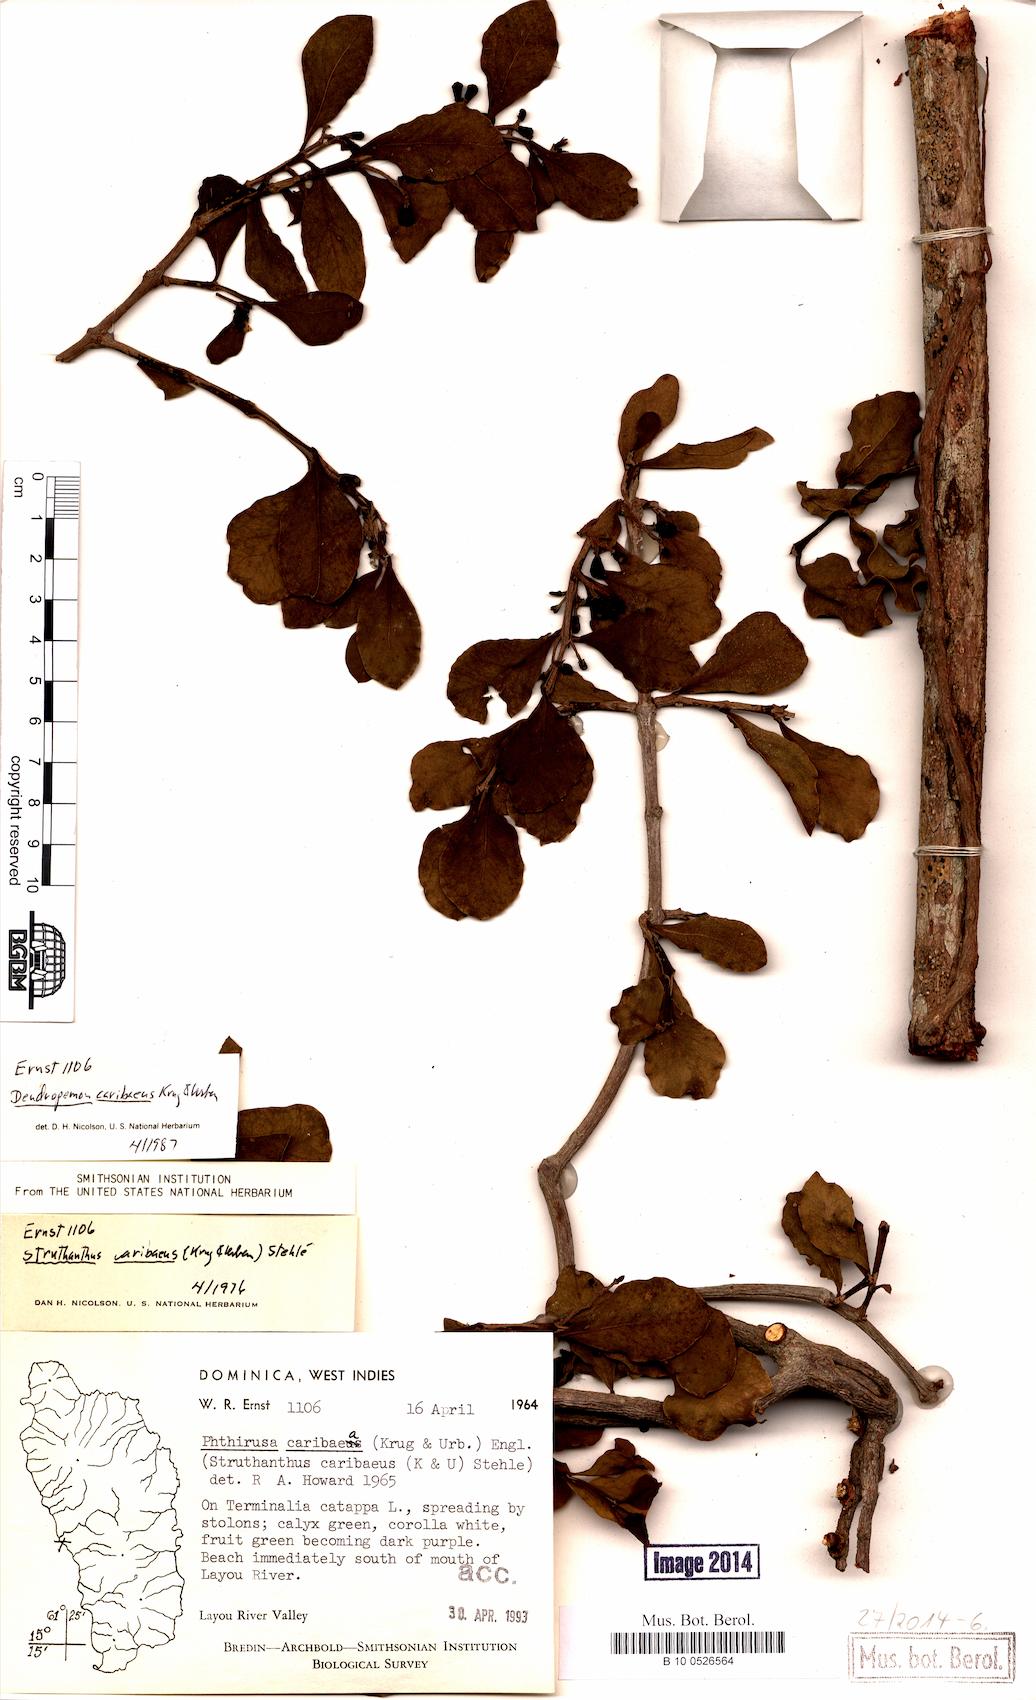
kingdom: Plantae
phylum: Tracheophyta
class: Magnoliopsida
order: Santalales
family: Loranthaceae
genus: Dendropemon
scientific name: Dendropemon caribaeus
